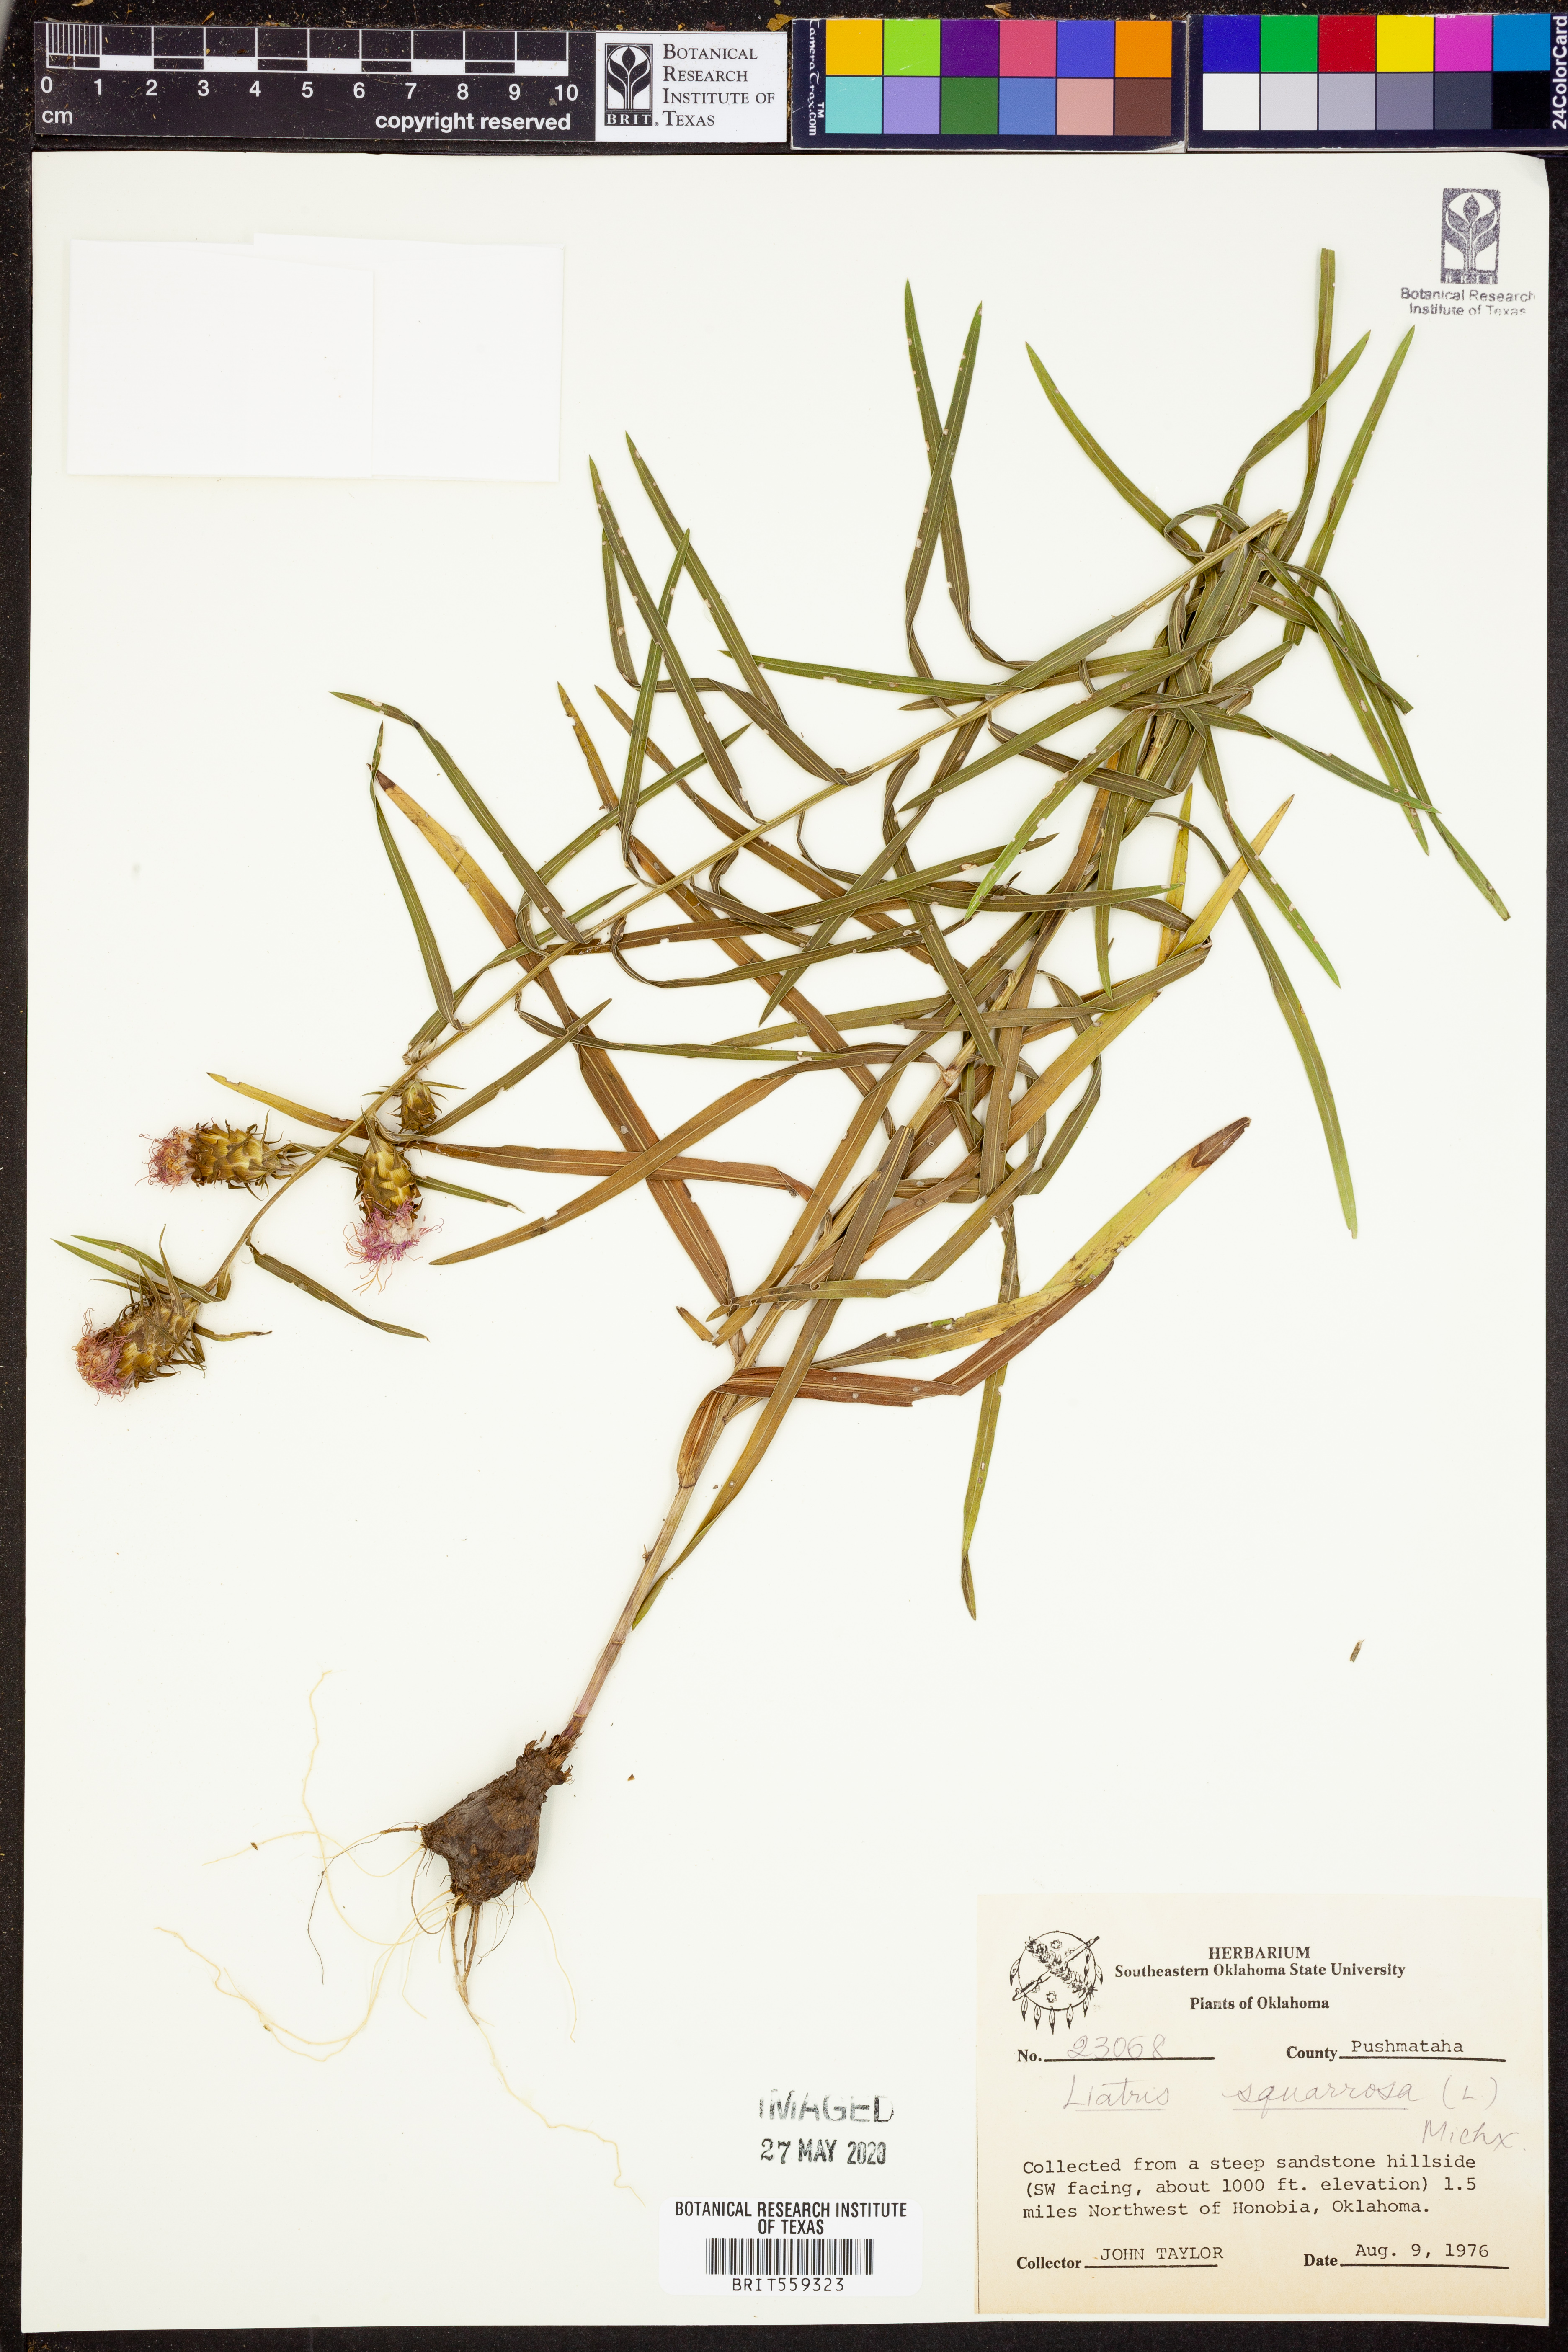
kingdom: Plantae
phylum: Tracheophyta
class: Magnoliopsida
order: Asterales
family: Asteraceae
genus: Liatris
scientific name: Liatris squarrosa
